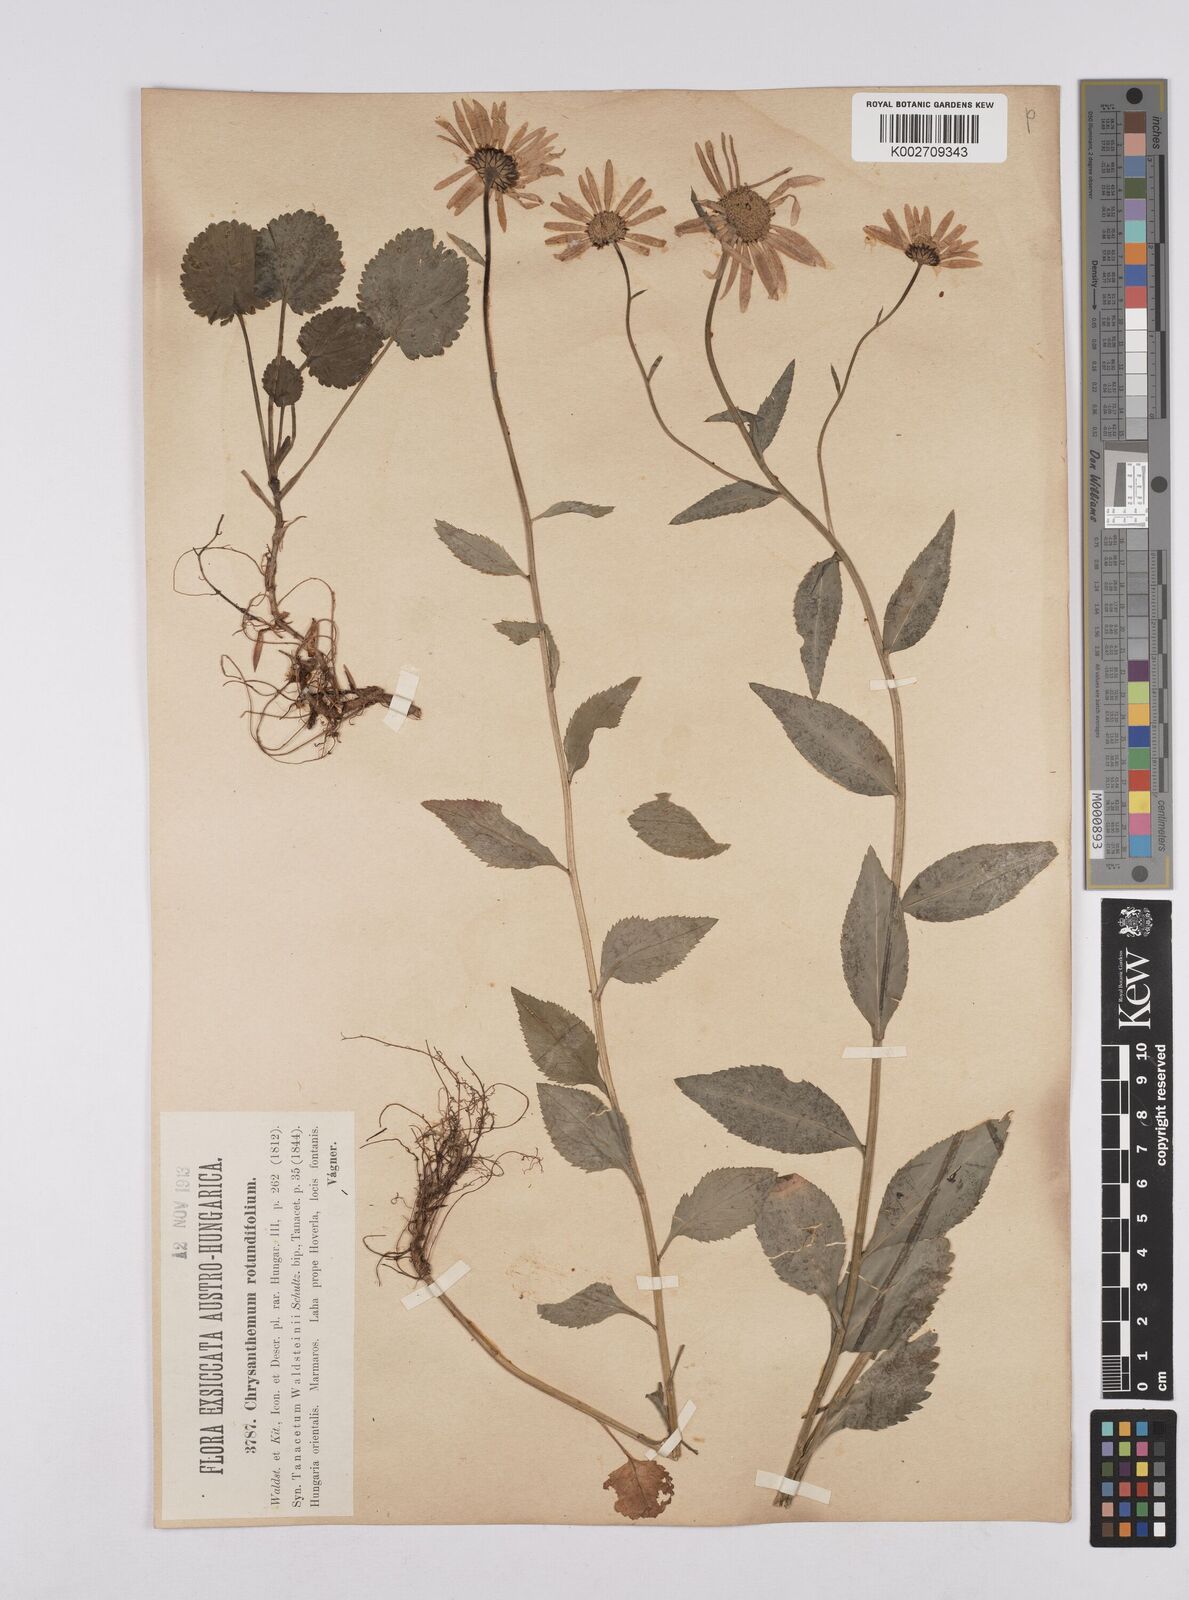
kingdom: Plantae
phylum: Tracheophyta
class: Magnoliopsida
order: Asterales
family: Asteraceae
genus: Leucanthemum
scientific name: Leucanthemum rotundifolium
